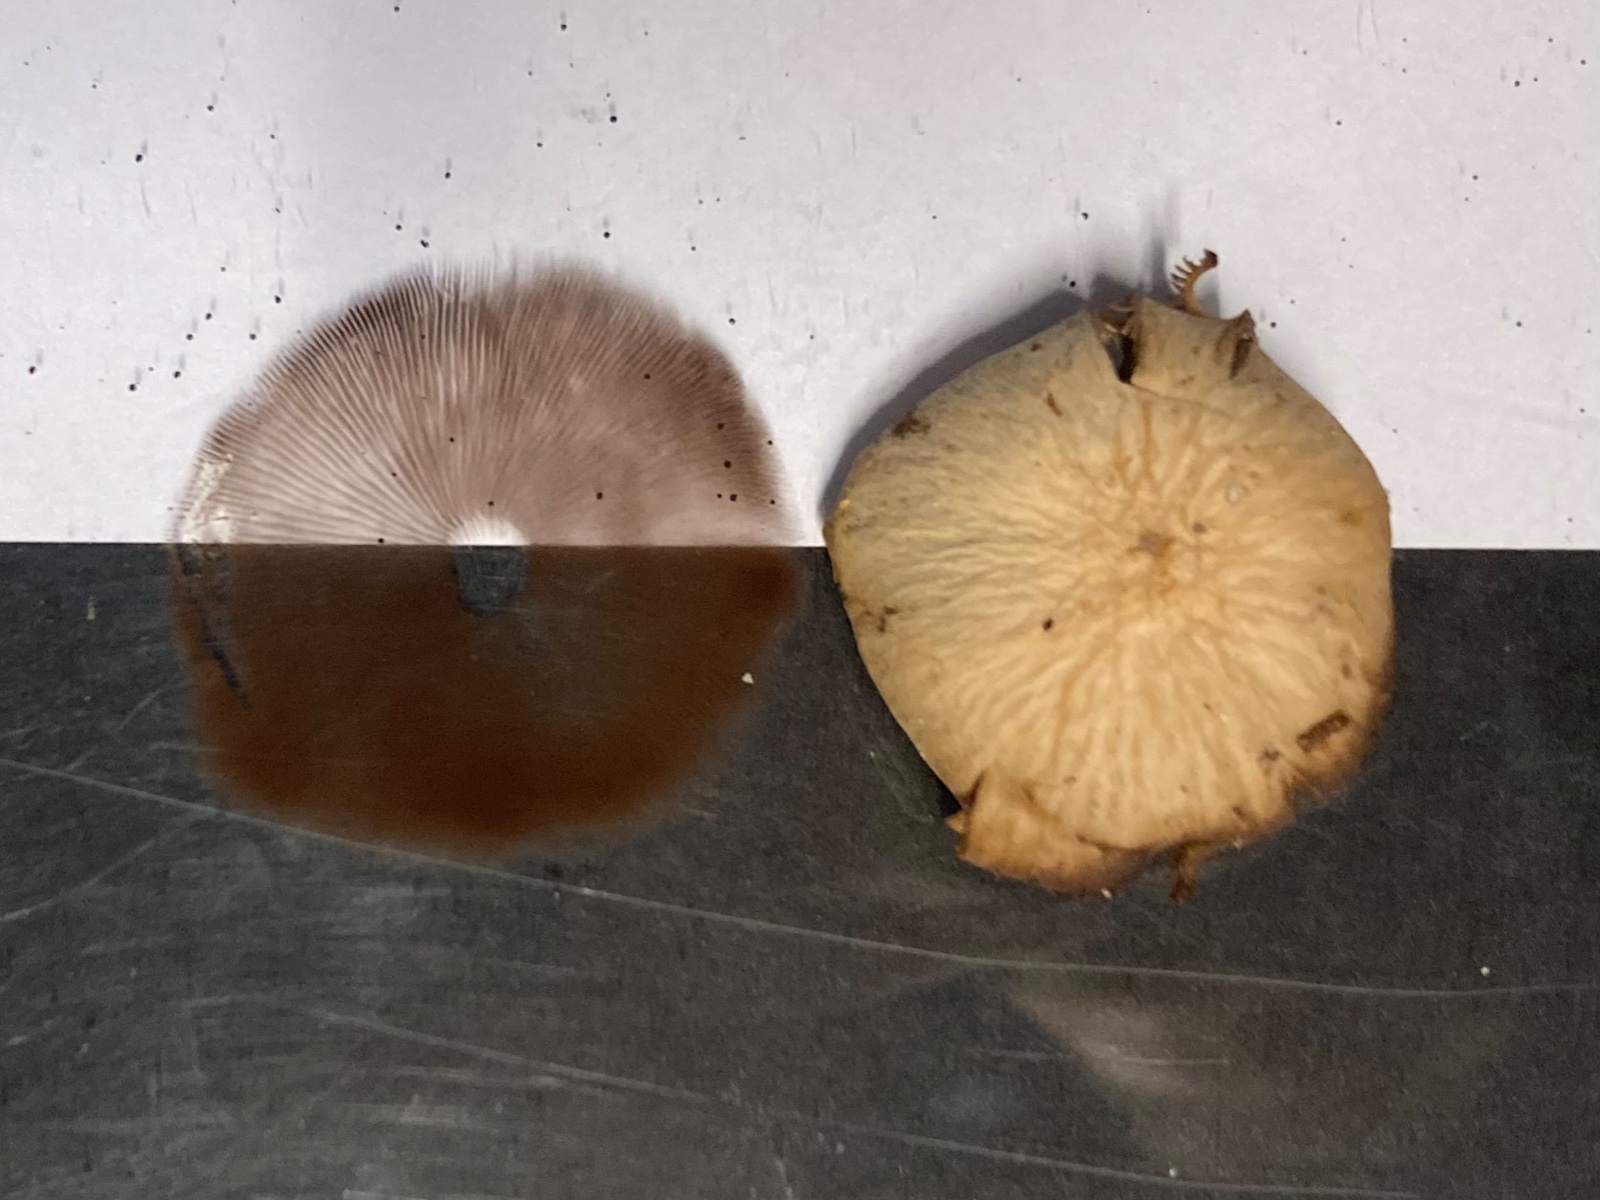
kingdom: Fungi
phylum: Basidiomycota
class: Agaricomycetes
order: Agaricales
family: Strophariaceae
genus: Agrocybe
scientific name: Agrocybe rivulosa
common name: året agerhat
